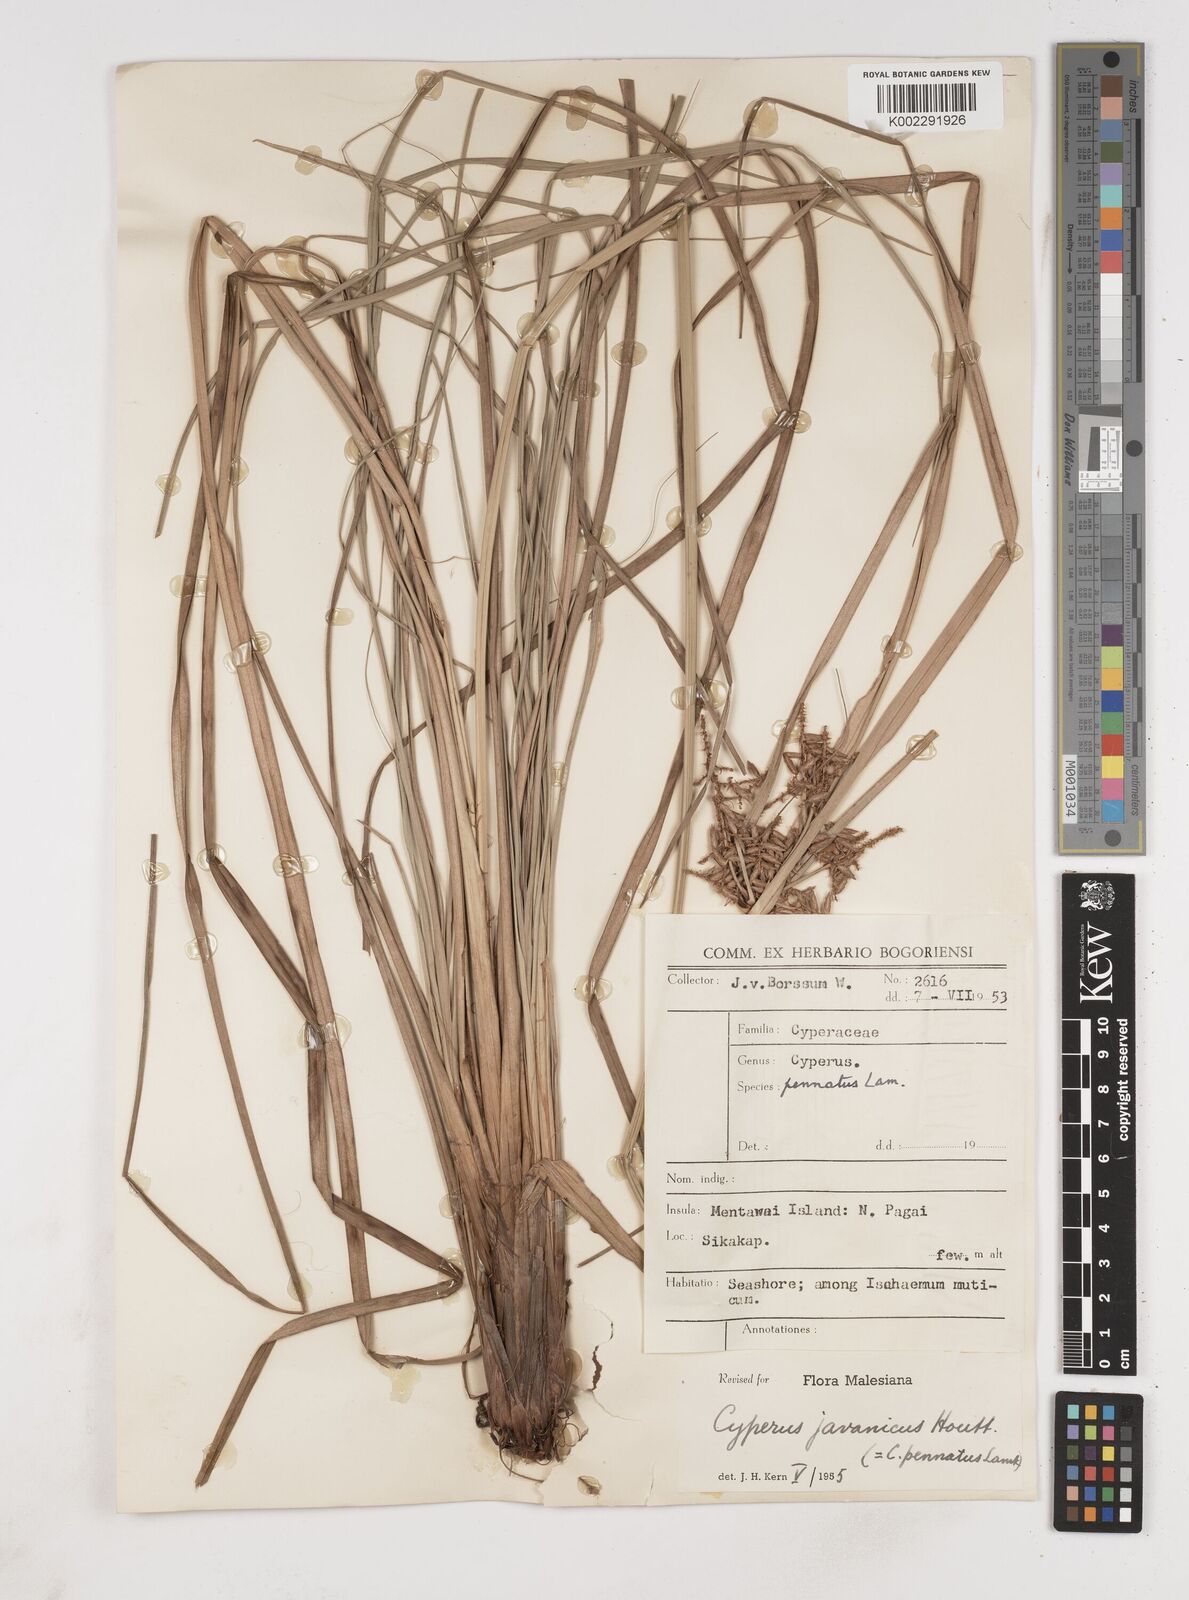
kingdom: Plantae
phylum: Tracheophyta
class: Liliopsida
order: Poales
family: Cyperaceae
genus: Cyperus
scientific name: Cyperus javanicus
